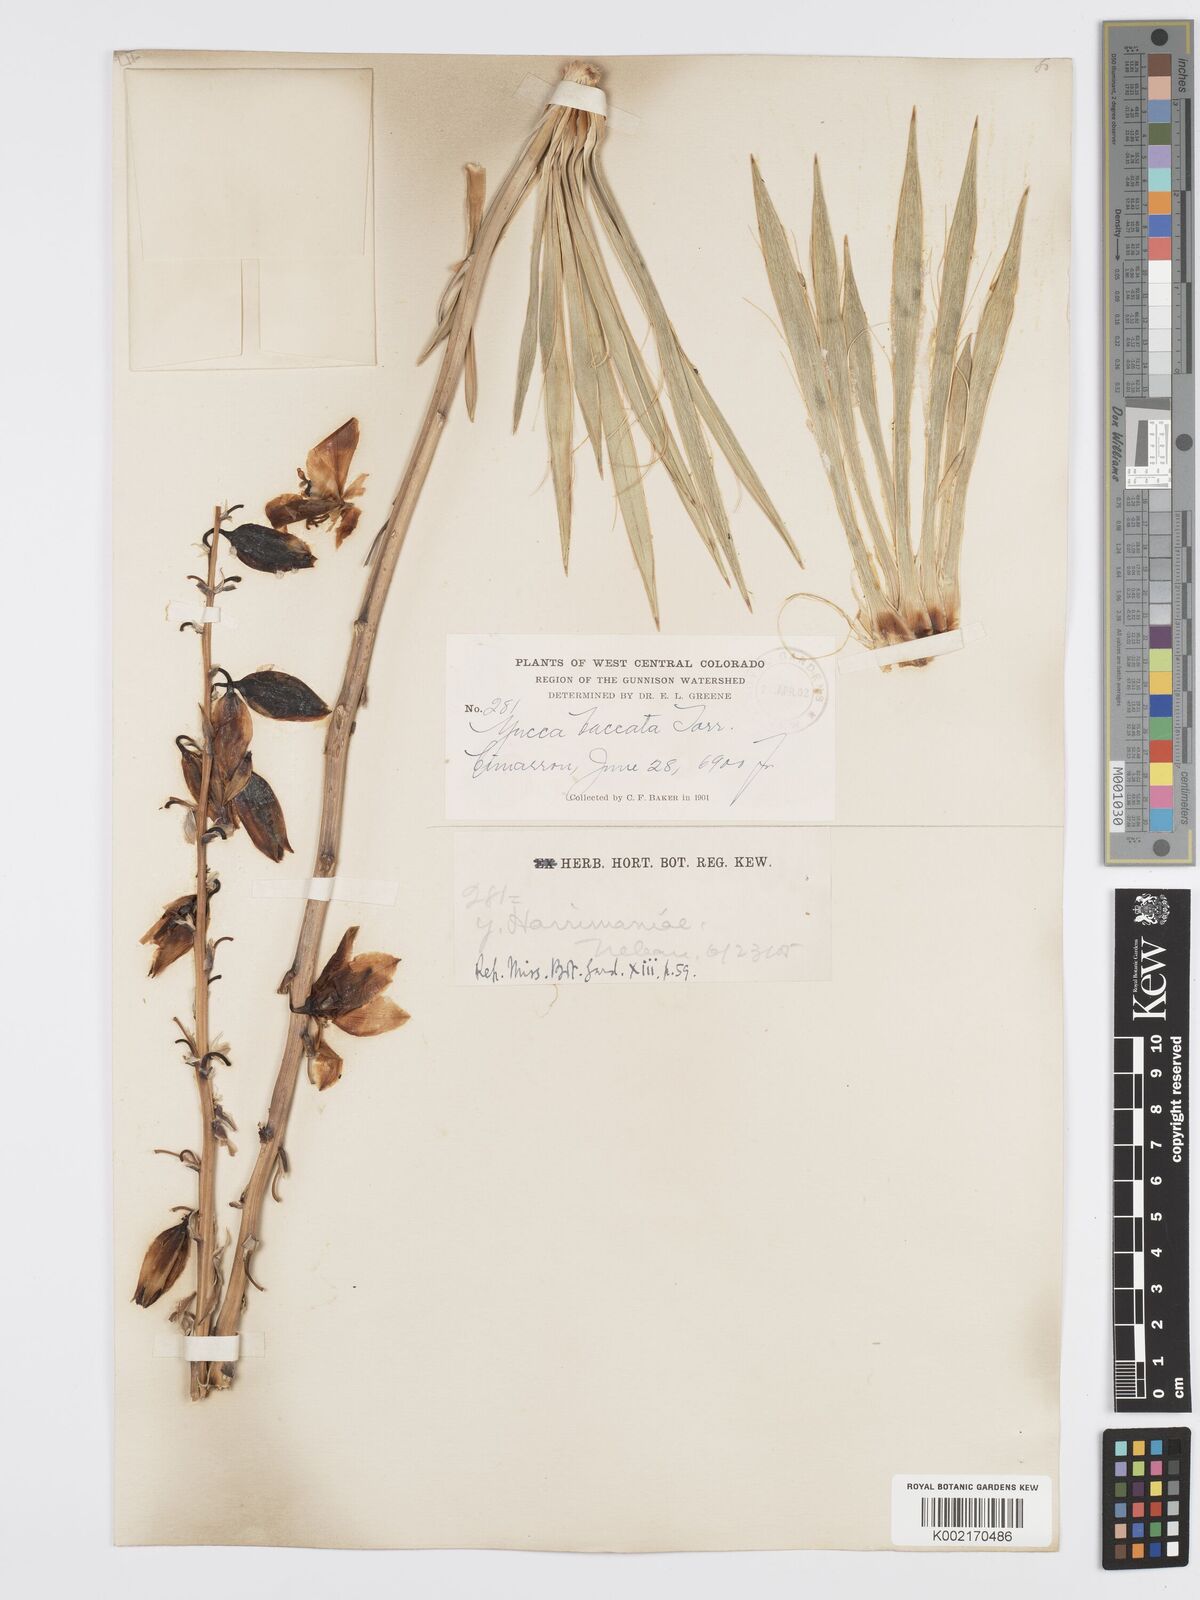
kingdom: Plantae
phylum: Tracheophyta
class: Liliopsida
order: Asparagales
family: Asparagaceae
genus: Yucca
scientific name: Yucca harrimaniae
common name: Harriman's yucca
